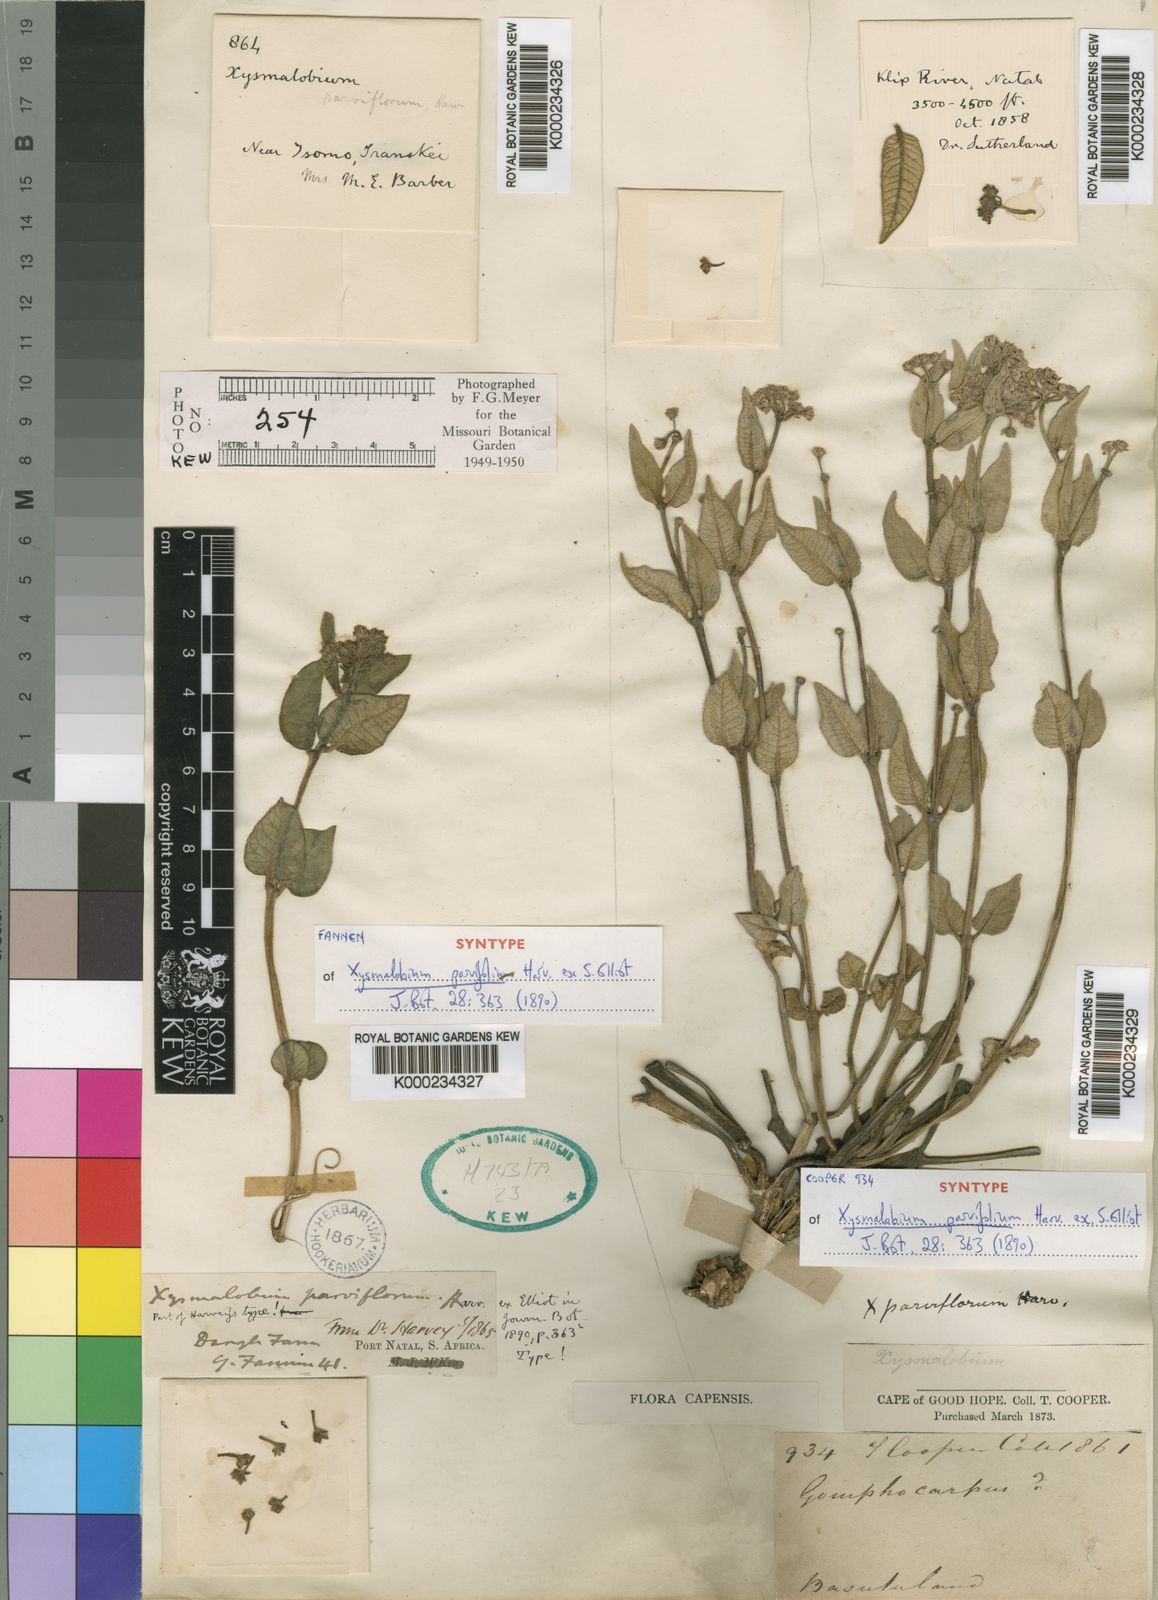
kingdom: Plantae
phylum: Tracheophyta
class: Magnoliopsida
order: Gentianales
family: Apocynaceae
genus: Xysmalobium
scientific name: Xysmalobium parviflorum
